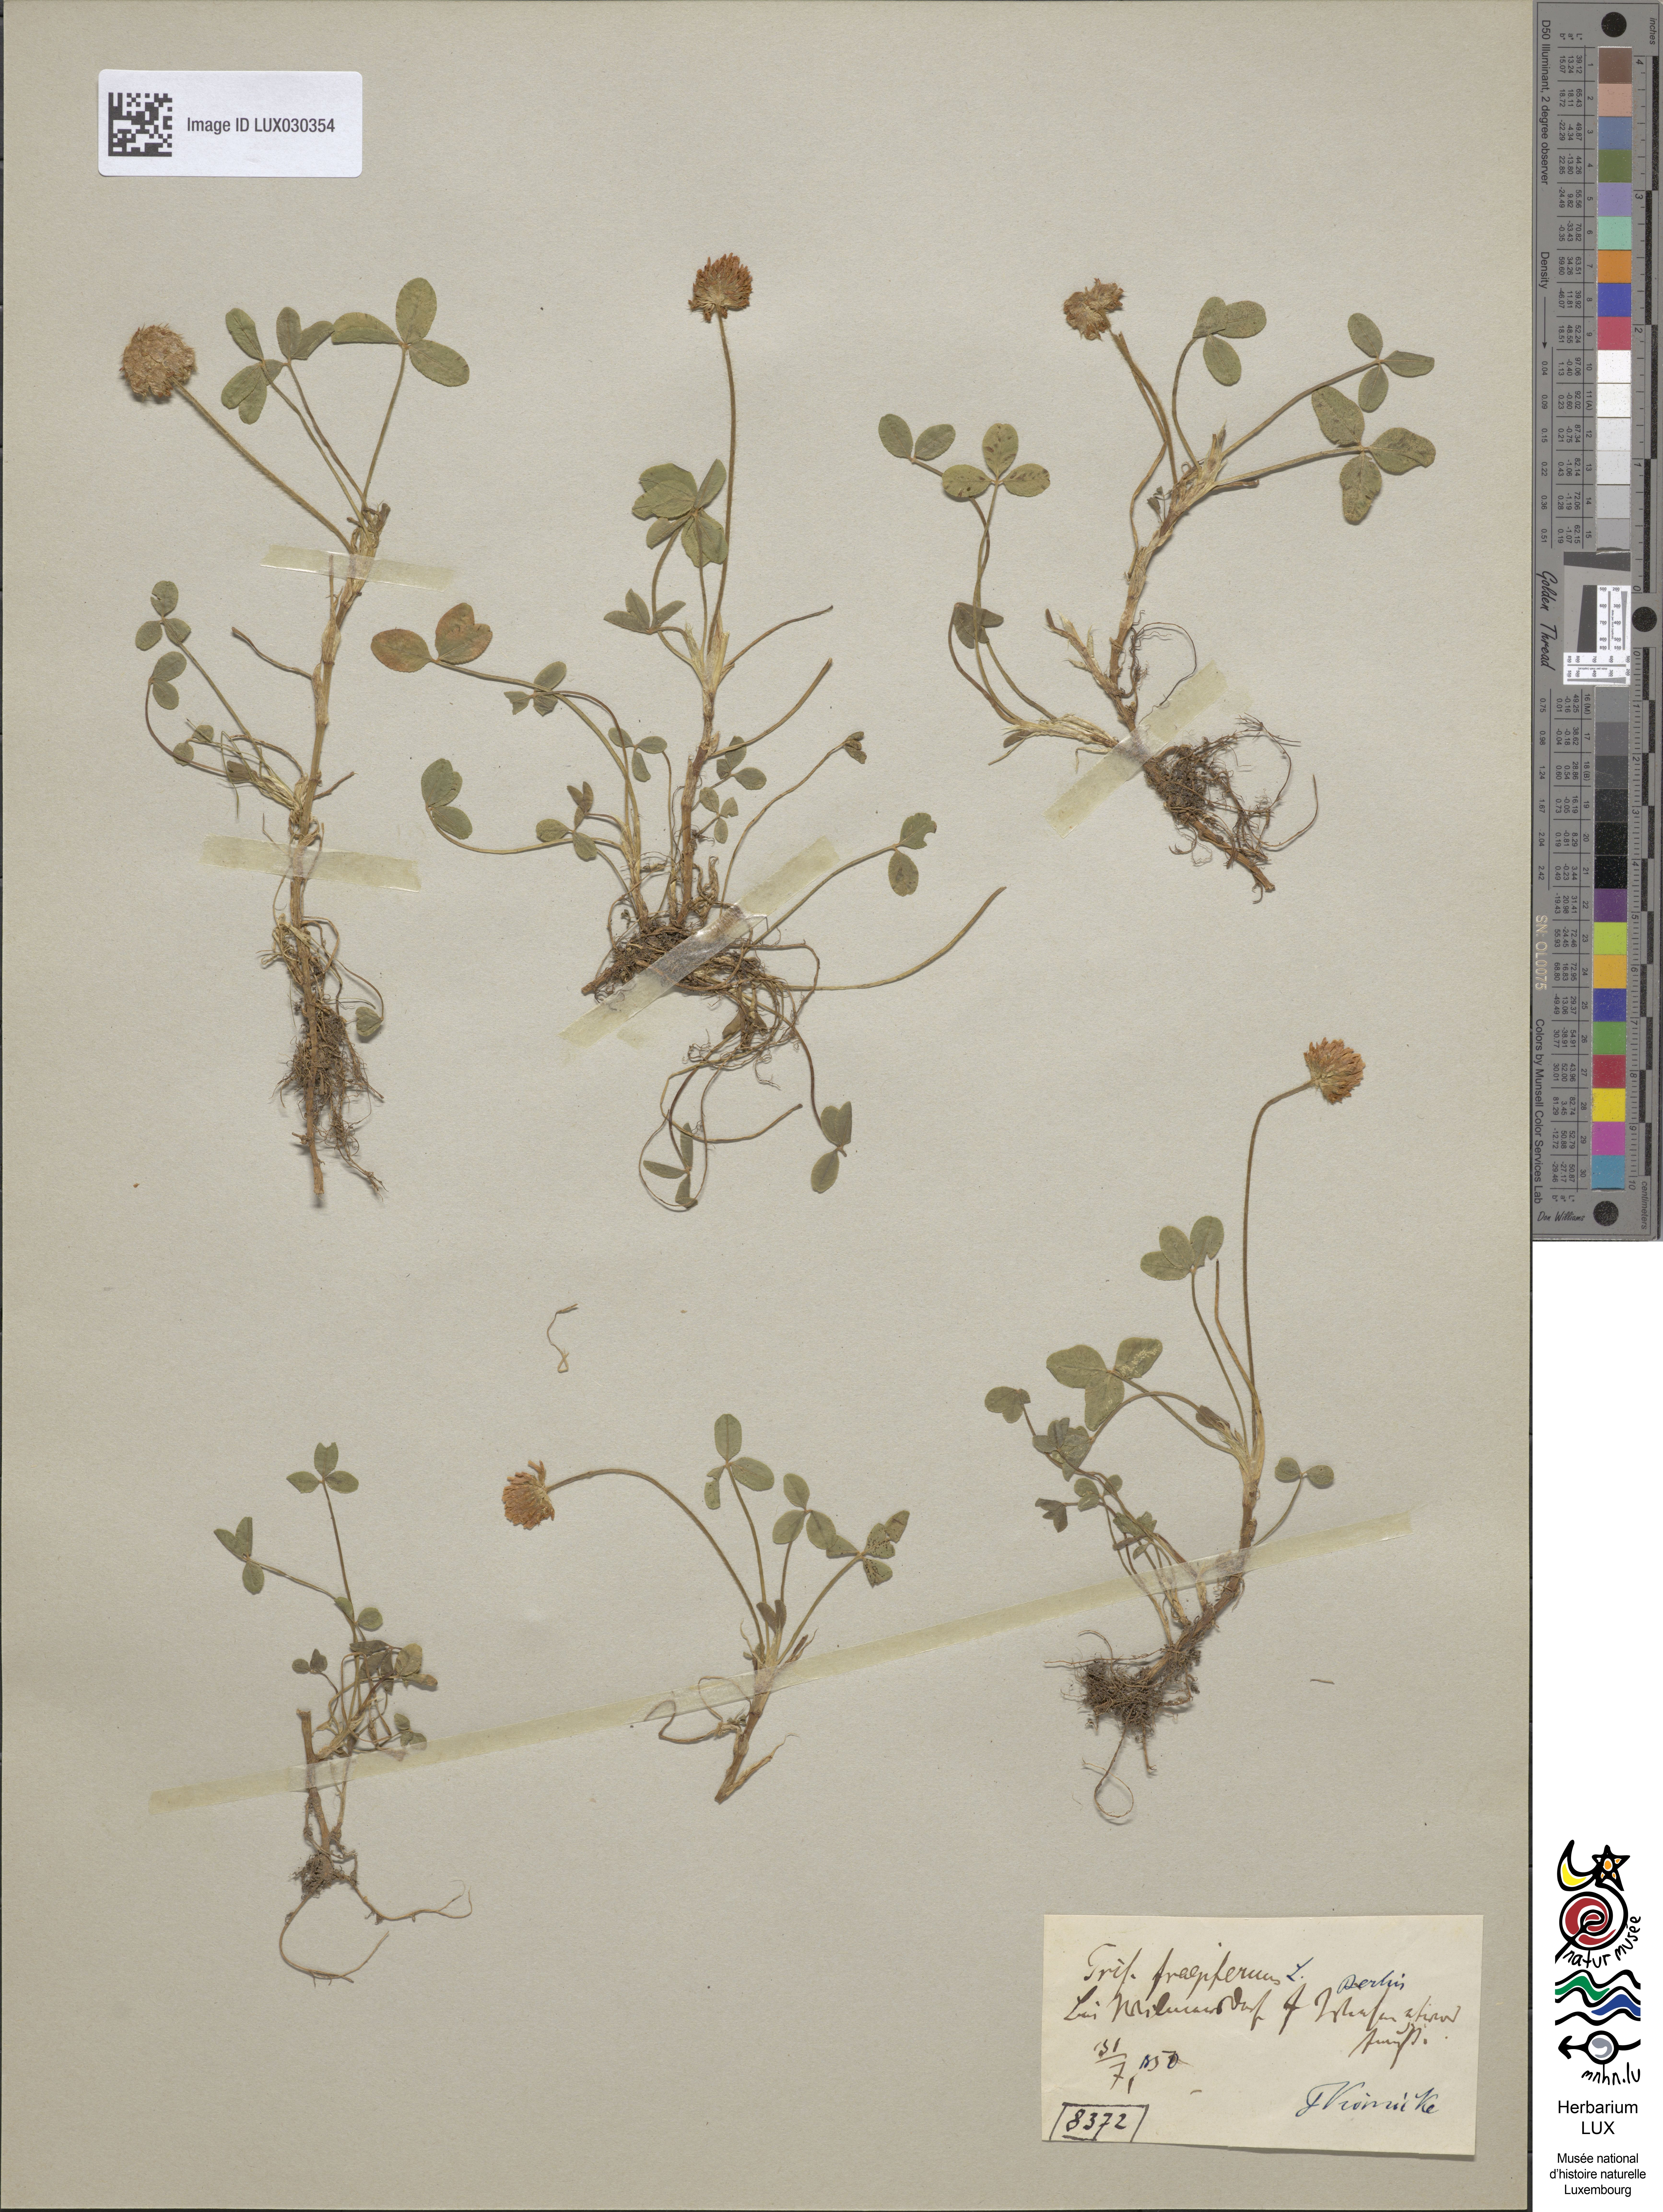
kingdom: Plantae
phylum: Tracheophyta
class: Magnoliopsida
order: Fabales
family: Fabaceae
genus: Trifolium
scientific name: Trifolium fragiferum
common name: Strawberry clover
